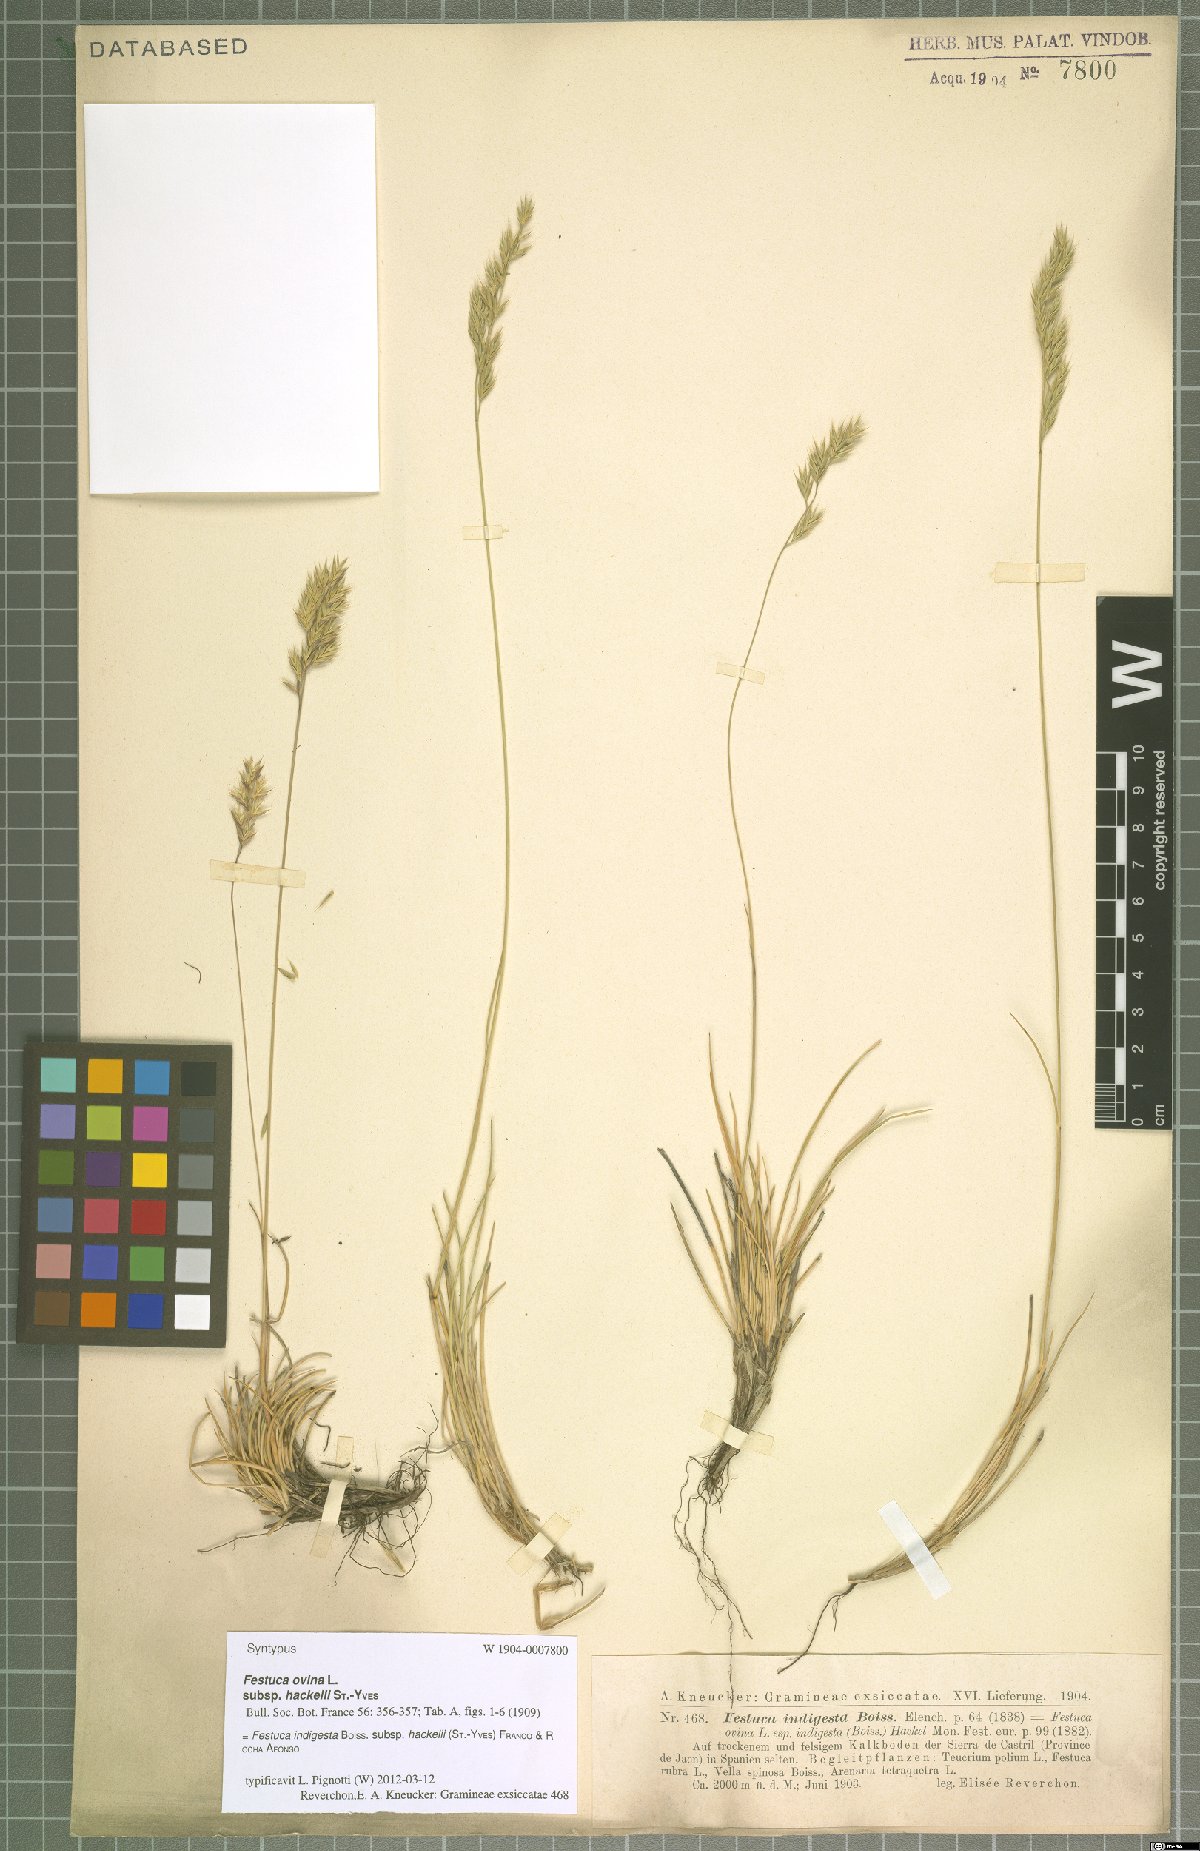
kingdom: Plantae
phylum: Tracheophyta
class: Liliopsida
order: Poales
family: Poaceae
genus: Festuca
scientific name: Festuca indigesta
